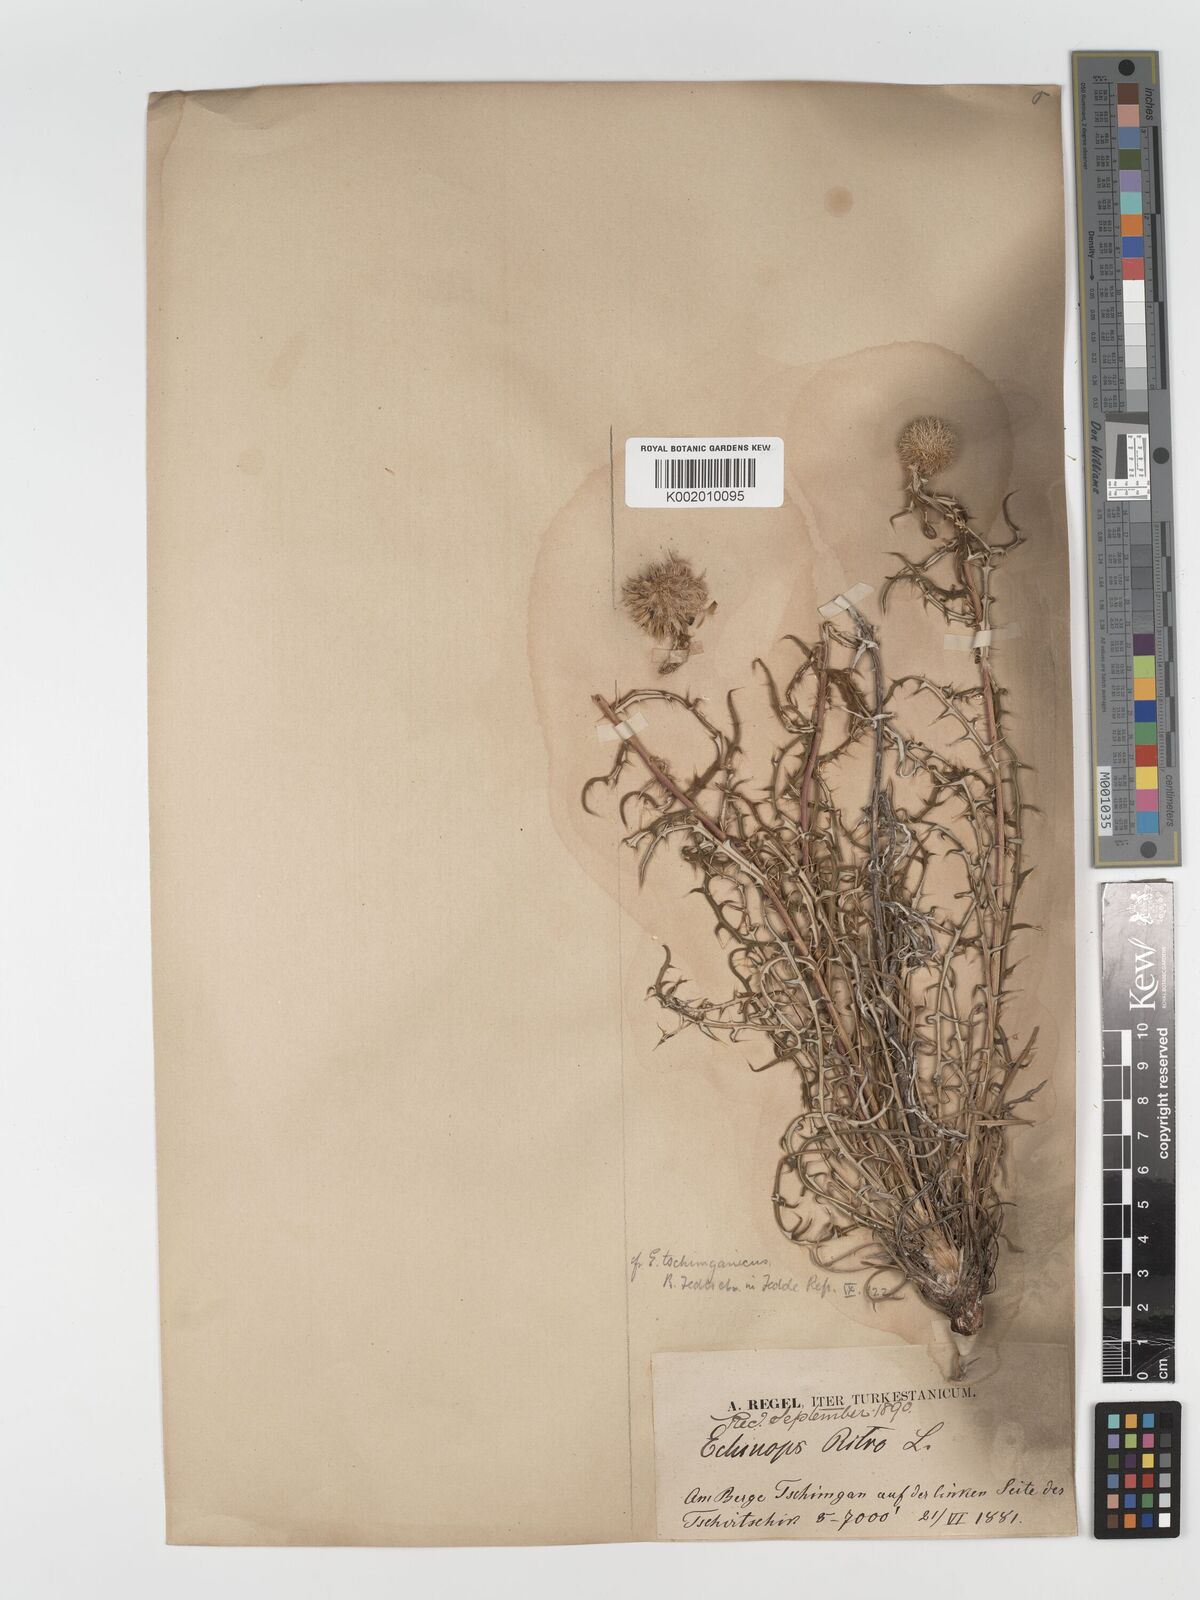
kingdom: Plantae
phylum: Tracheophyta
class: Magnoliopsida
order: Asterales
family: Asteraceae
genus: Echinops
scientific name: Echinops tschimganicus
